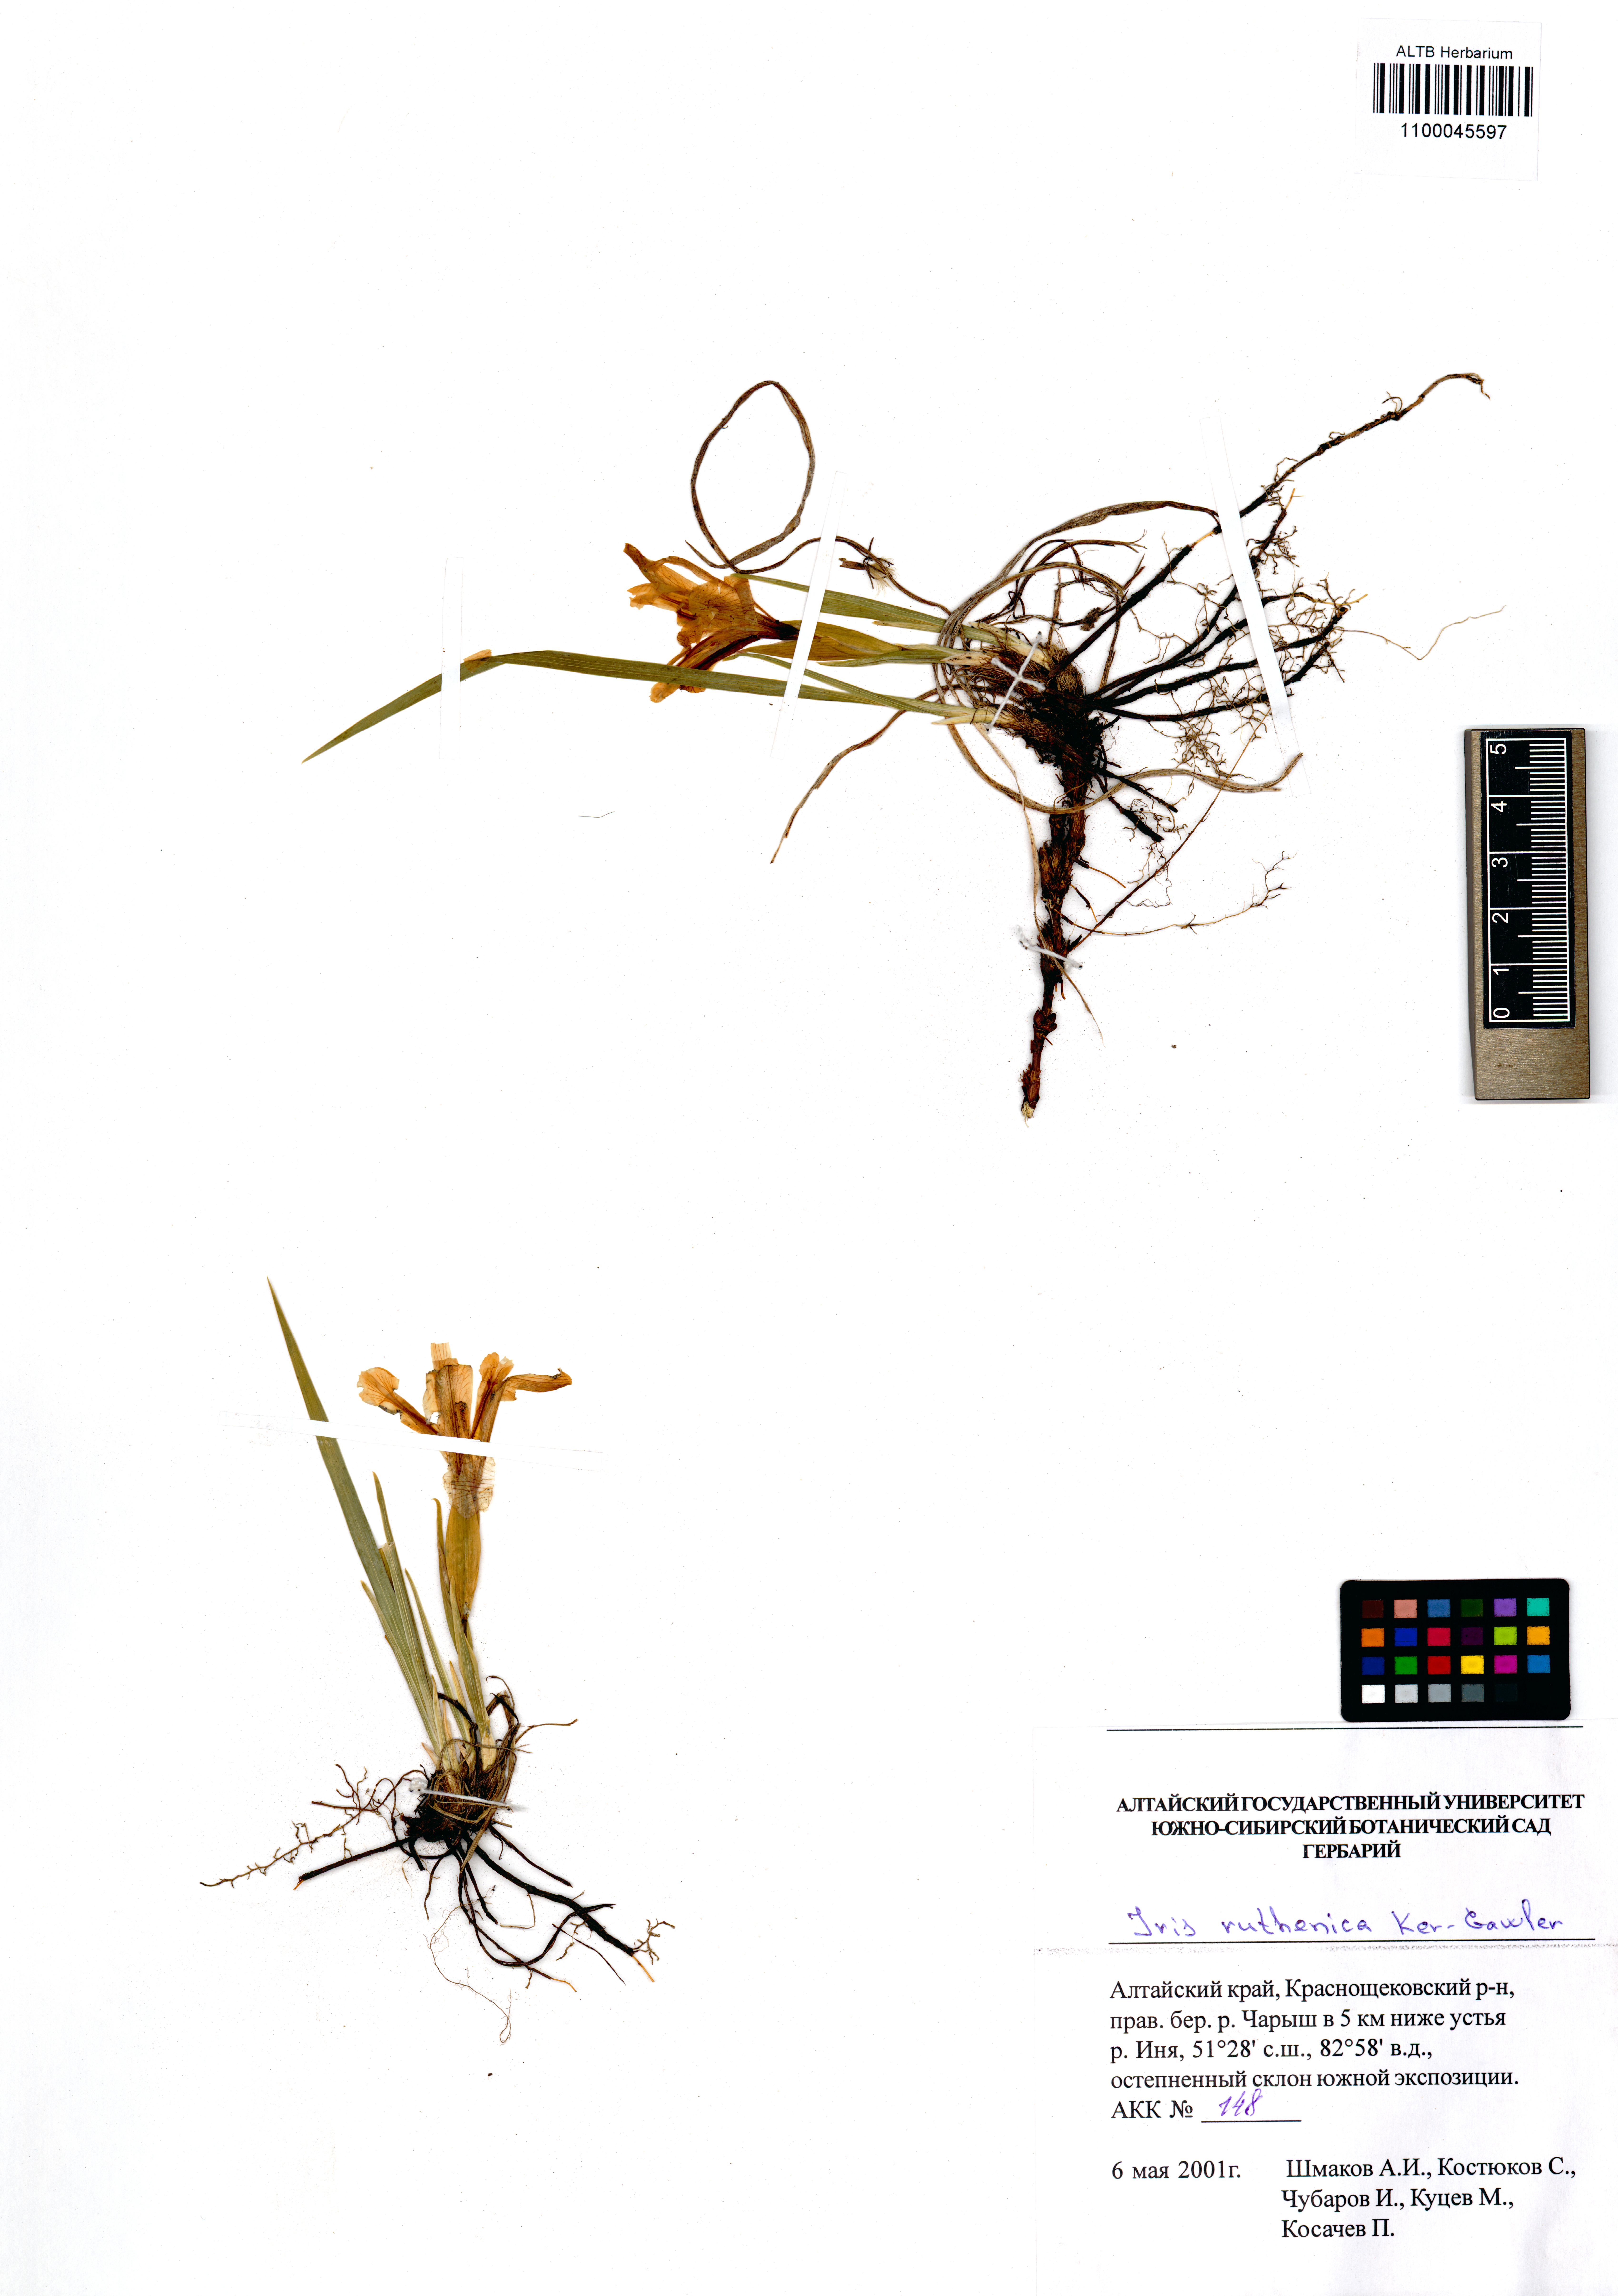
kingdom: Plantae
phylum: Tracheophyta
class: Liliopsida
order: Asparagales
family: Iridaceae
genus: Iris
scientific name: Iris ruthenica
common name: Purple-bract iris
